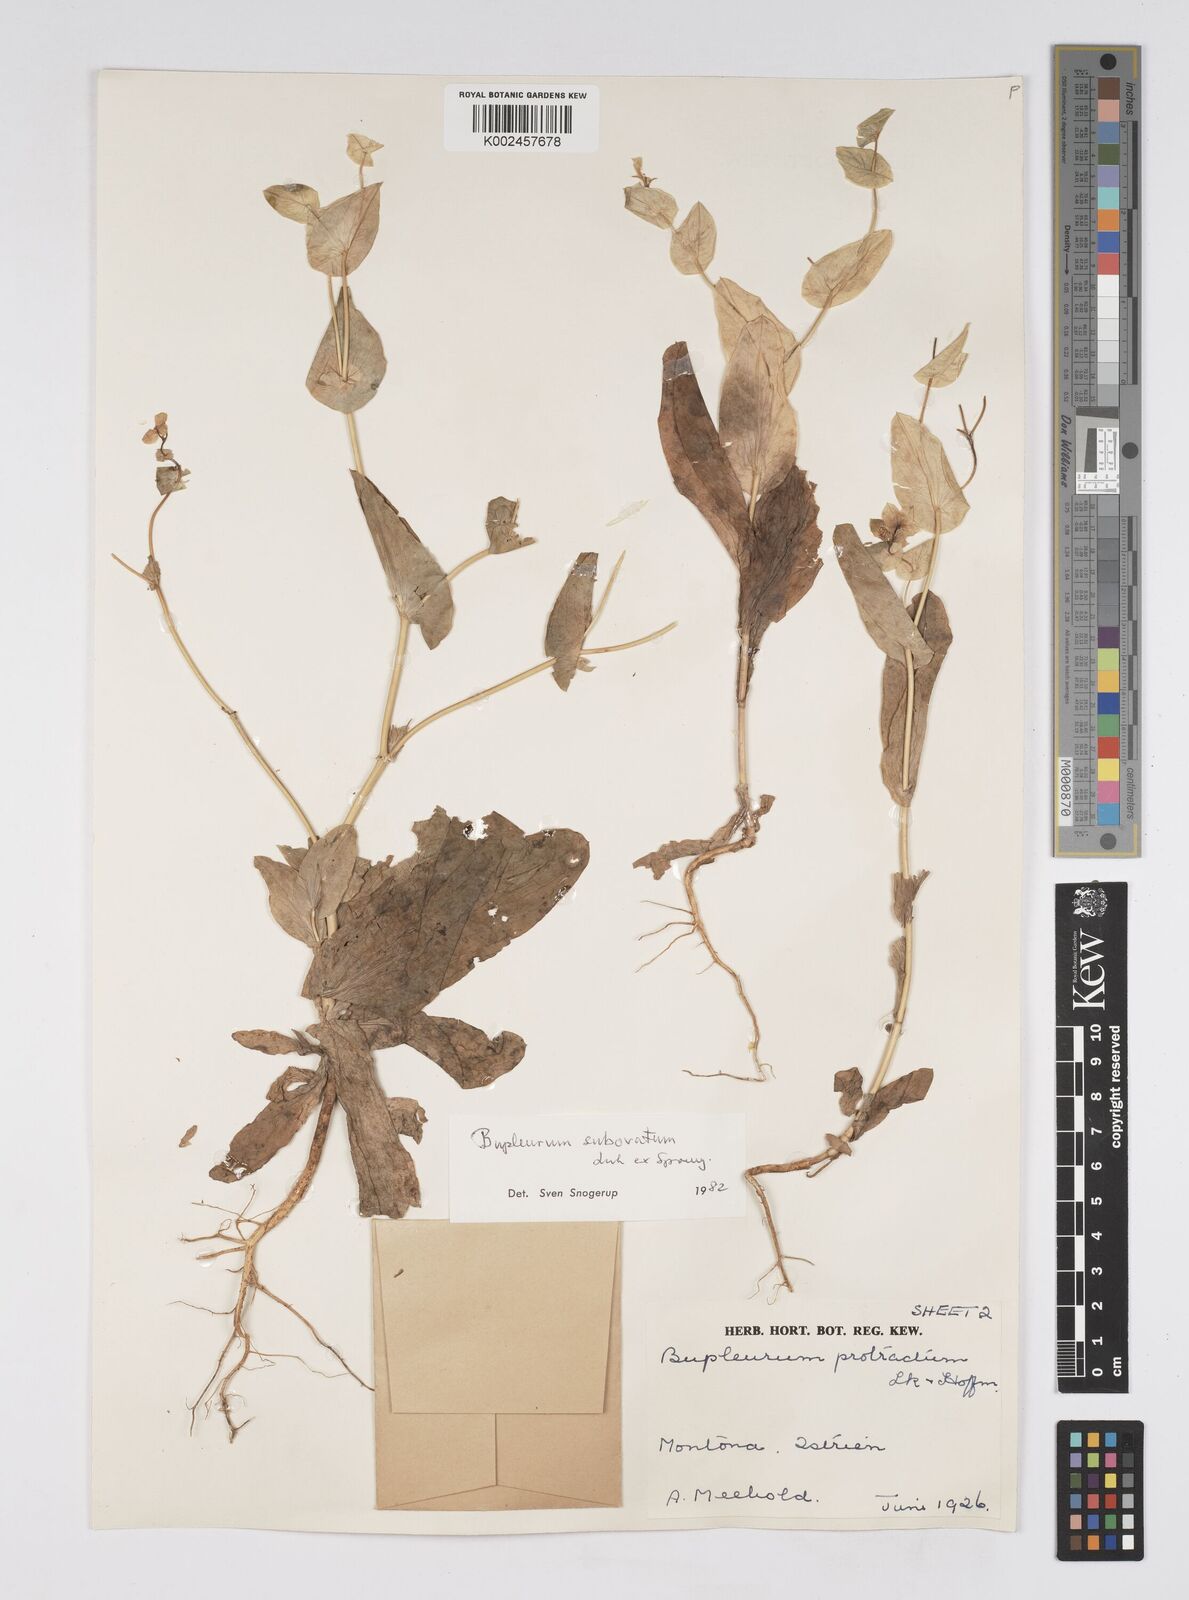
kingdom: Plantae
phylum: Tracheophyta
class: Magnoliopsida
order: Apiales
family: Apiaceae
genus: Bupleurum
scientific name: Bupleurum lancifolium
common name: False thorow-wax
